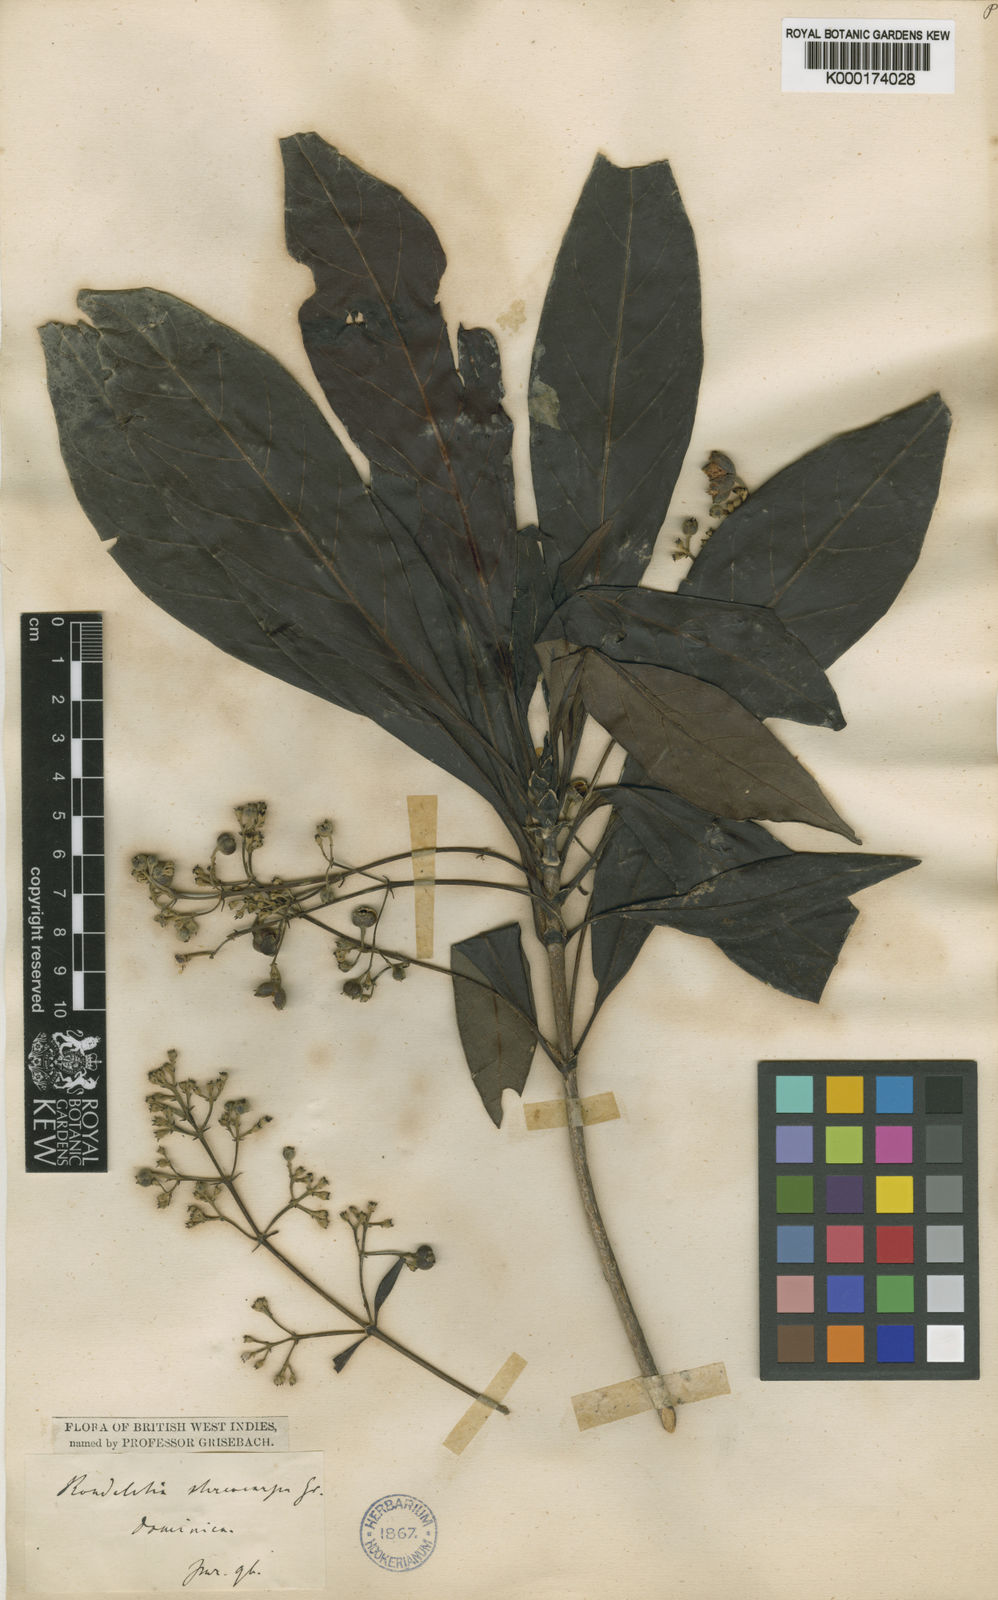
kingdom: Plantae
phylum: Tracheophyta
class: Magnoliopsida
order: Gentianales
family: Rubiaceae
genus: Rondeletia
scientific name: Rondeletia parviflora
